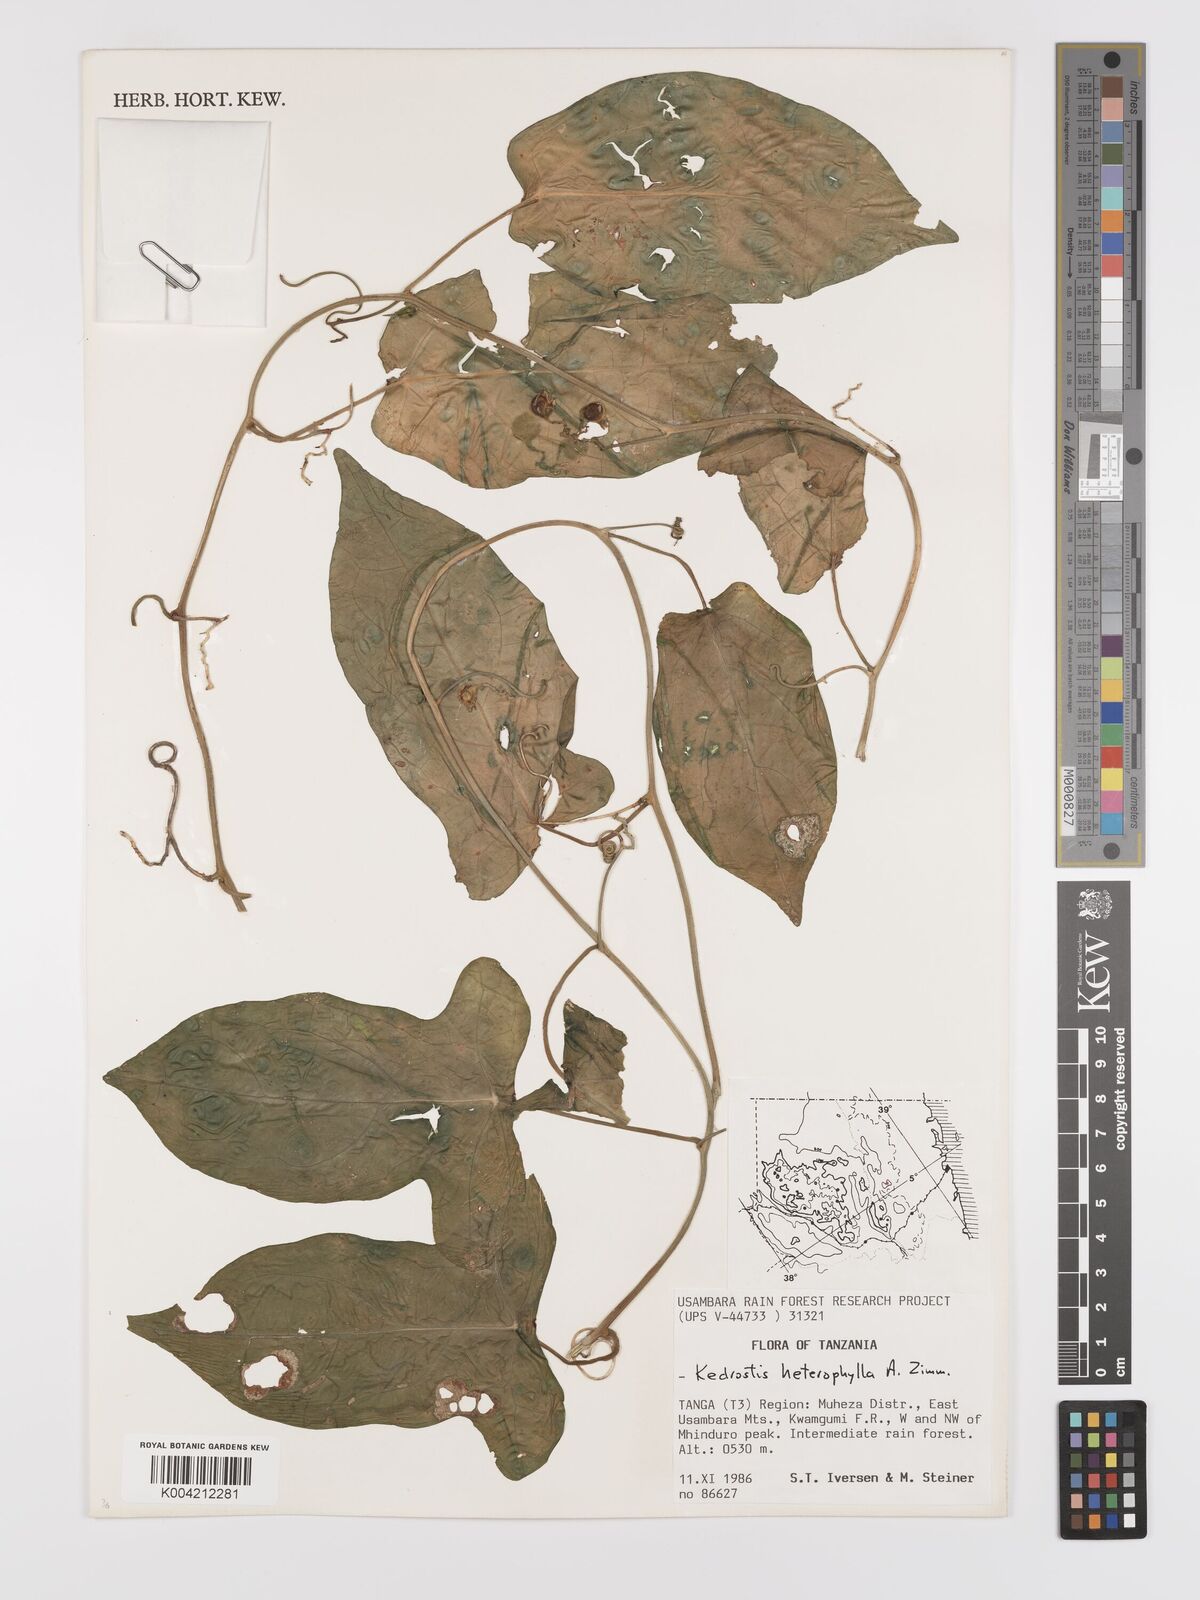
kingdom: Plantae
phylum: Tracheophyta
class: Magnoliopsida
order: Cucurbitales
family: Cucurbitaceae
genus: Kedrostis
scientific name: Kedrostis heterophylla
